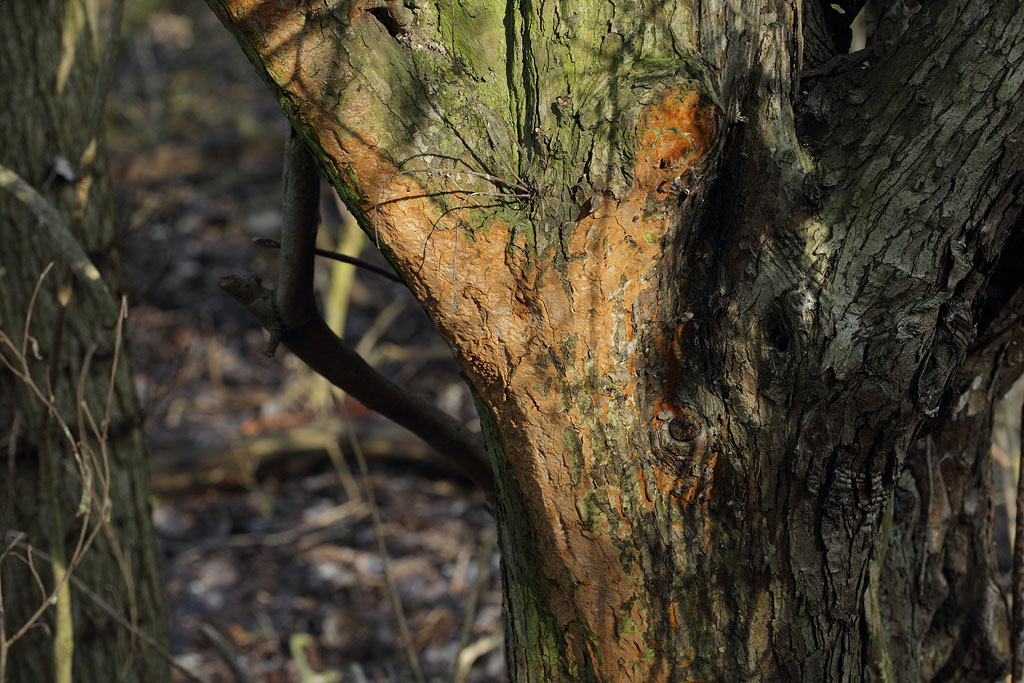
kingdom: Fungi
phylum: Basidiomycota
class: Agaricomycetes
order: Hymenochaetales
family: Hymenochaetaceae
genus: Fuscoporia
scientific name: Fuscoporia ferrea
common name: skorpe-ildporesvamp
